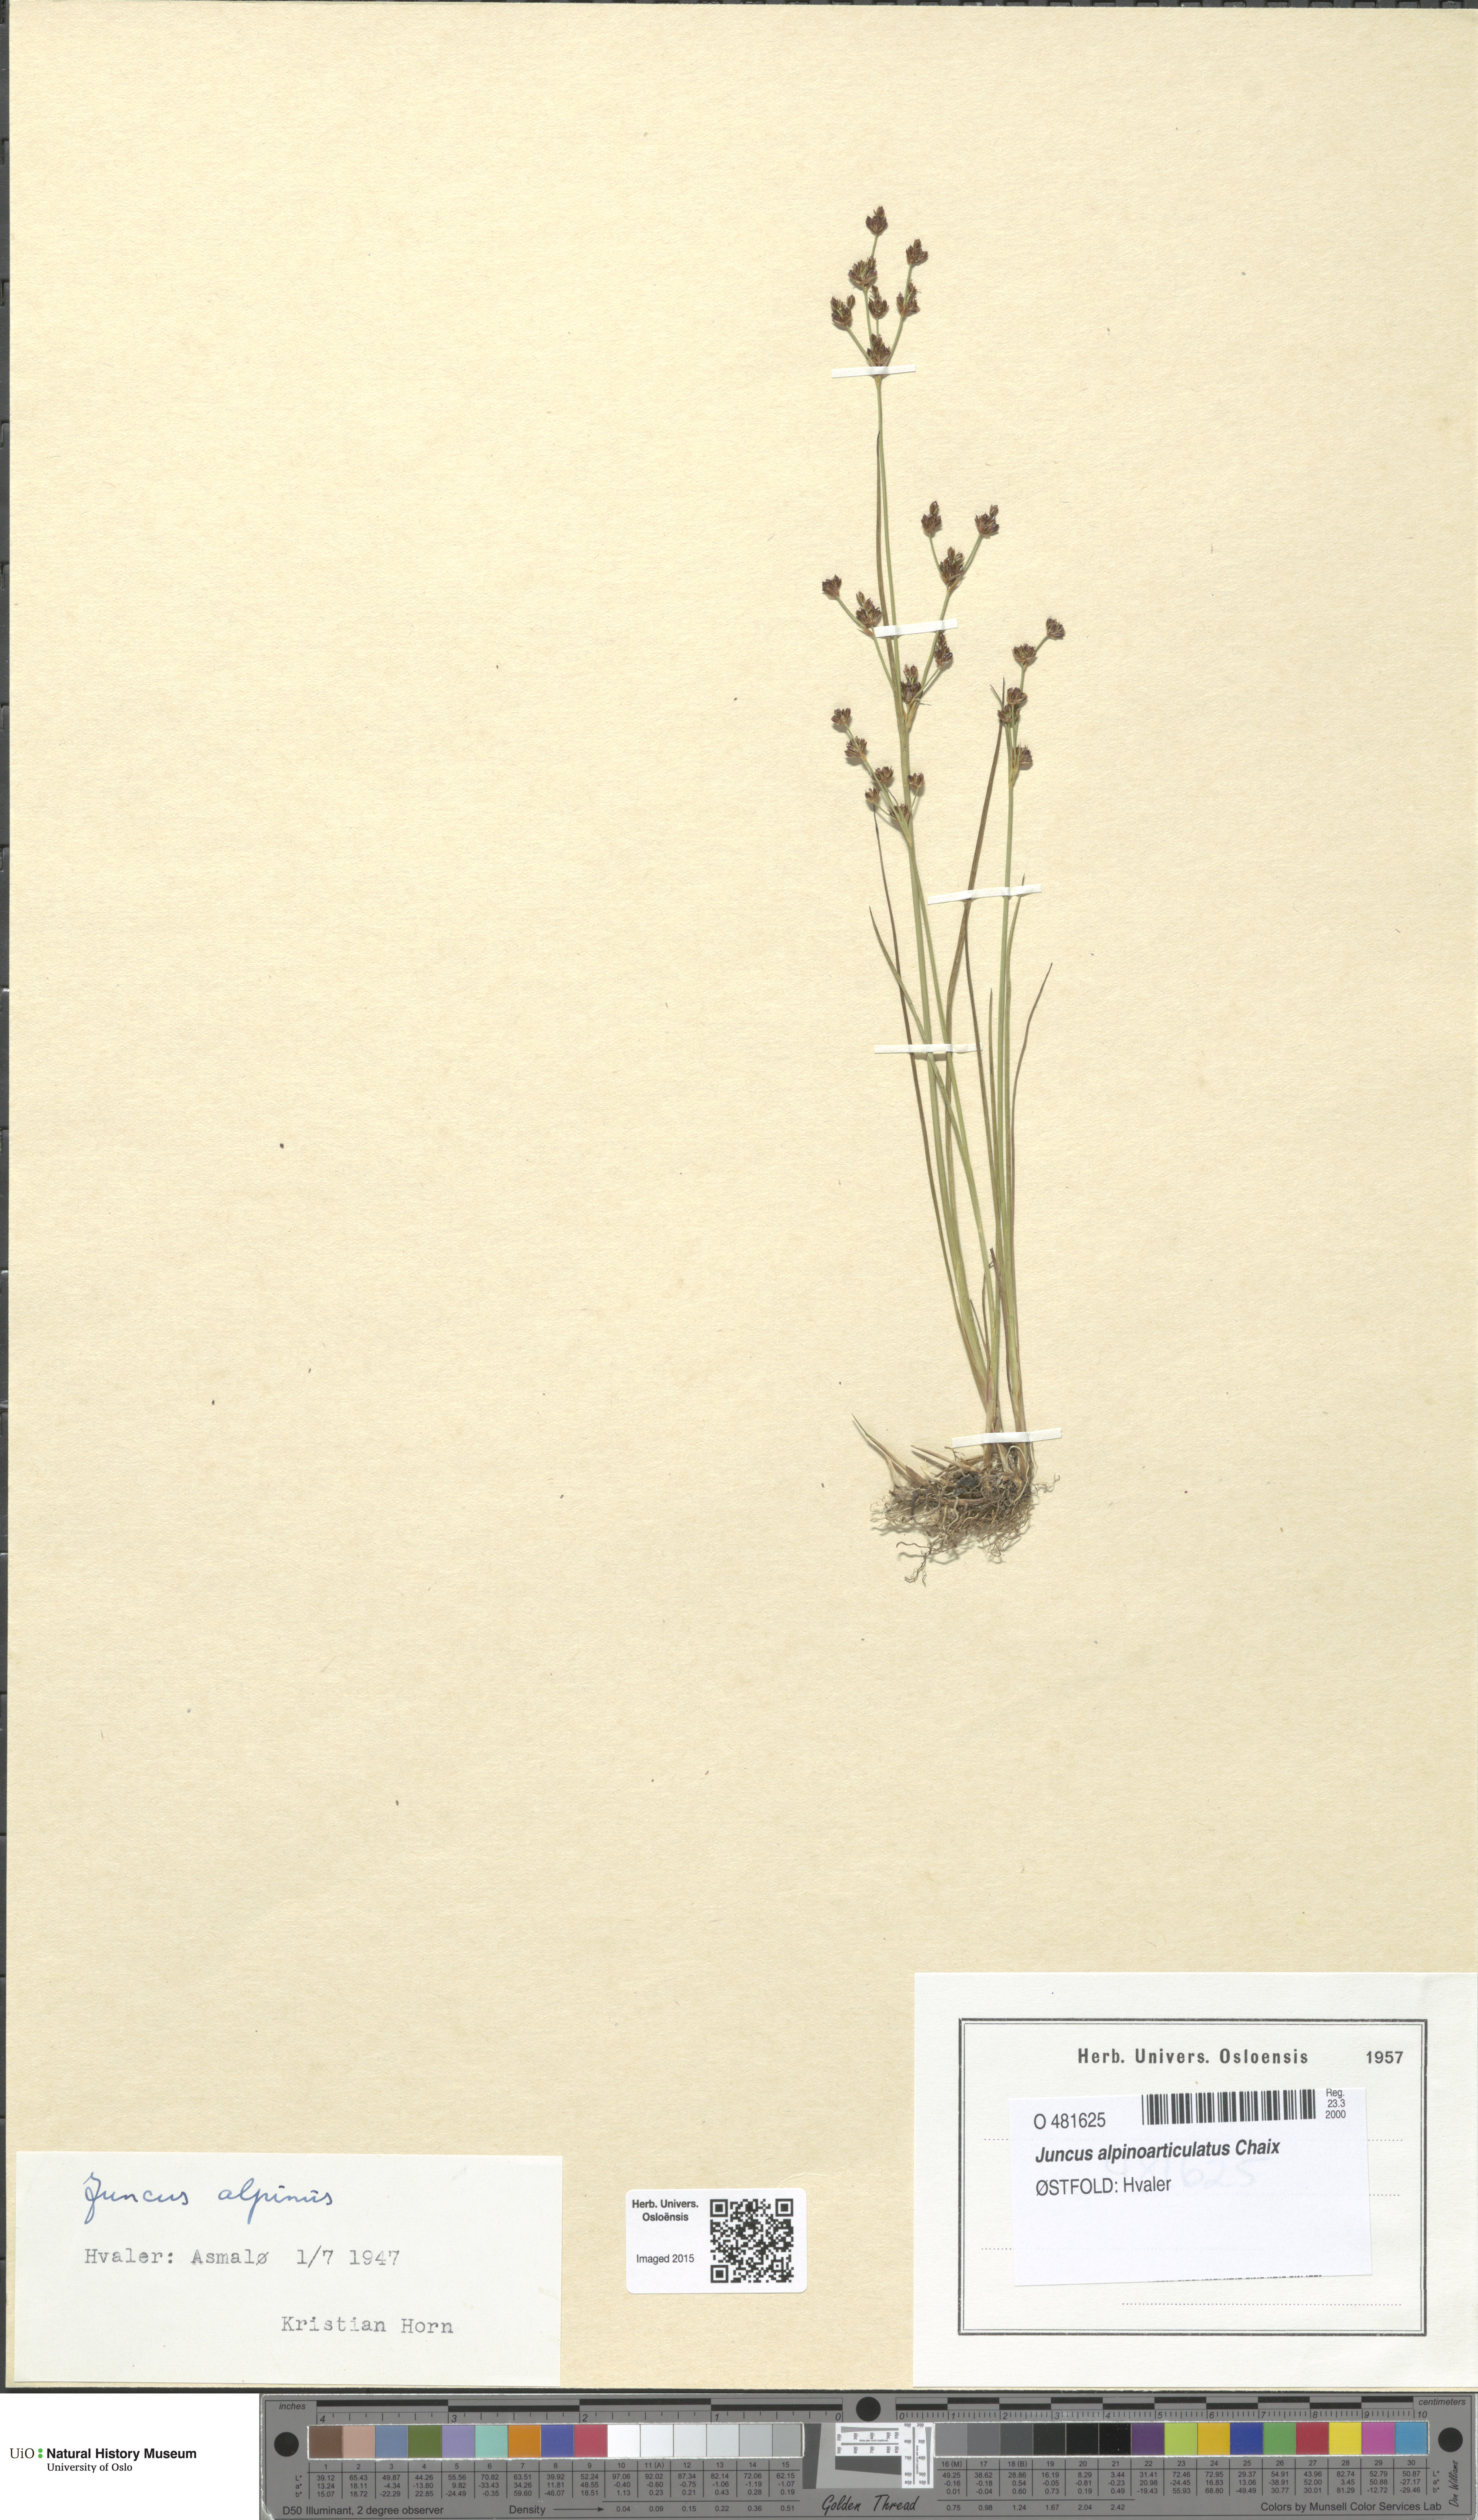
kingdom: Plantae
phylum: Tracheophyta
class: Liliopsida
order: Poales
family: Juncaceae
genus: Juncus
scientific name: Juncus alpinoarticulatus
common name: Alpine rush
